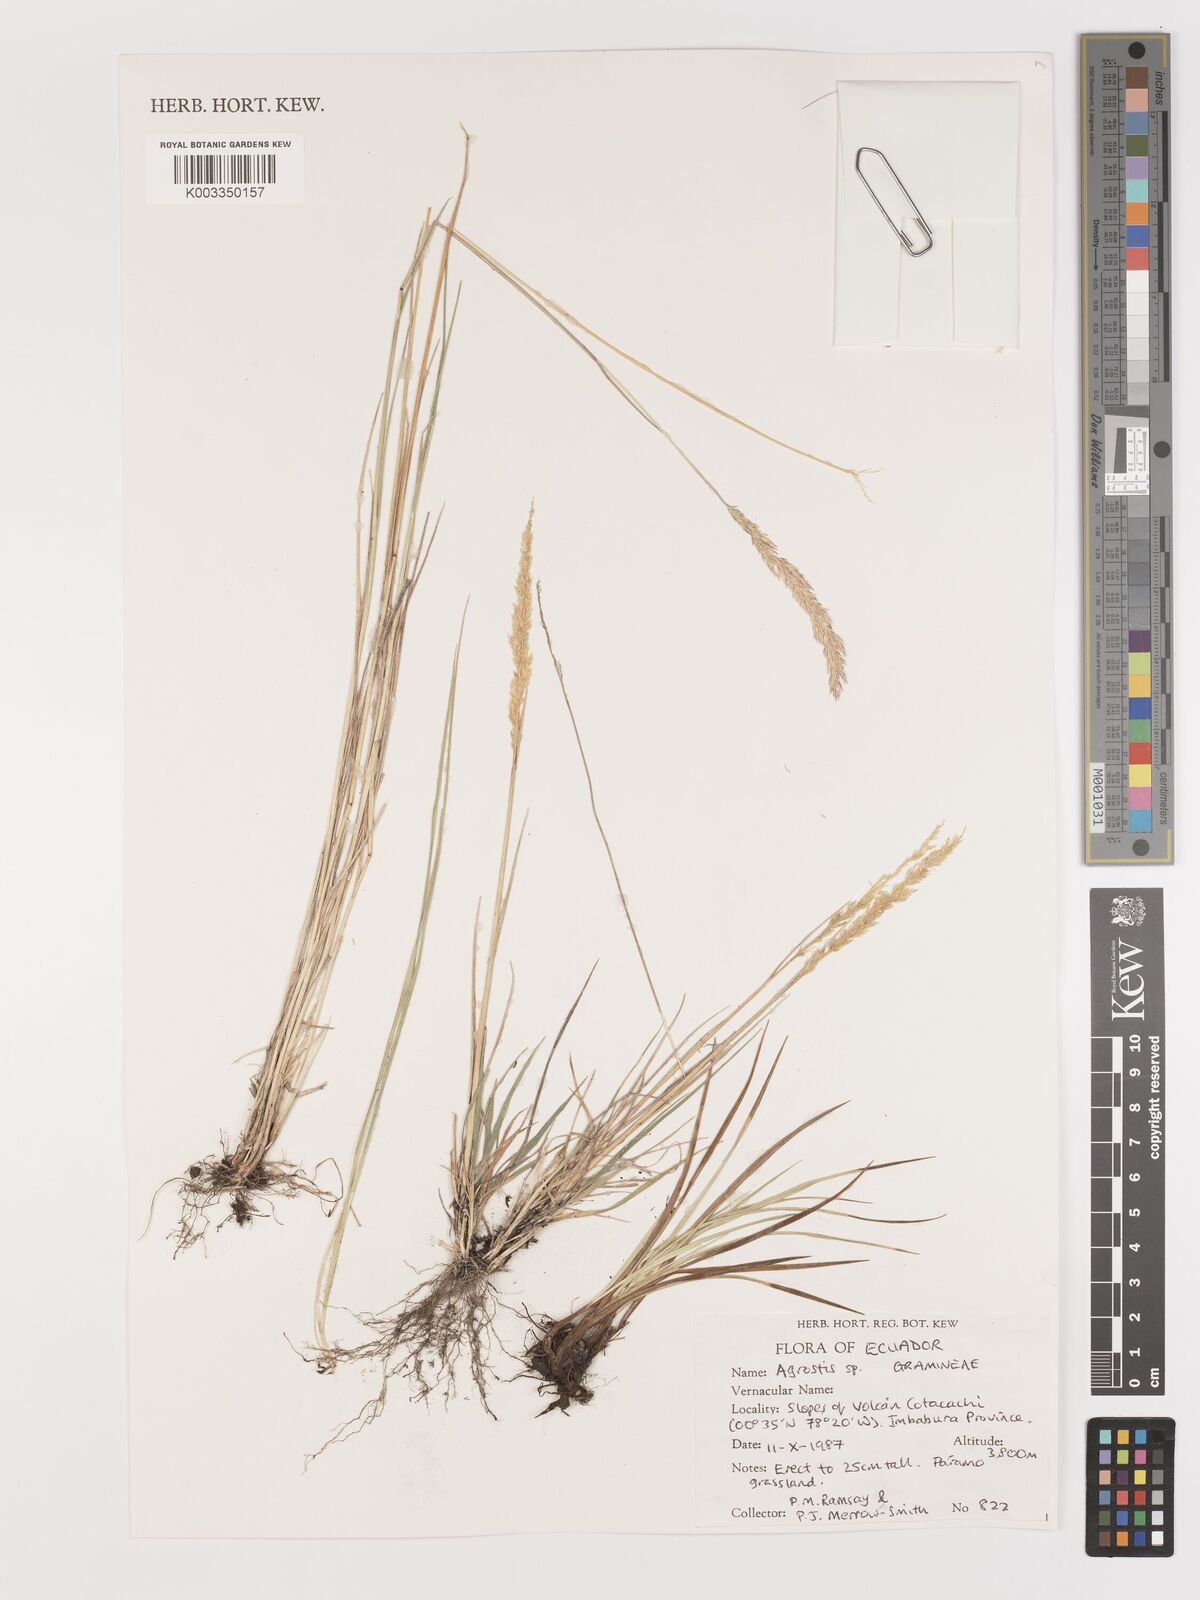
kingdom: Plantae
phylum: Tracheophyta
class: Liliopsida
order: Poales
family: Poaceae
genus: Agrostis
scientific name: Agrostis
